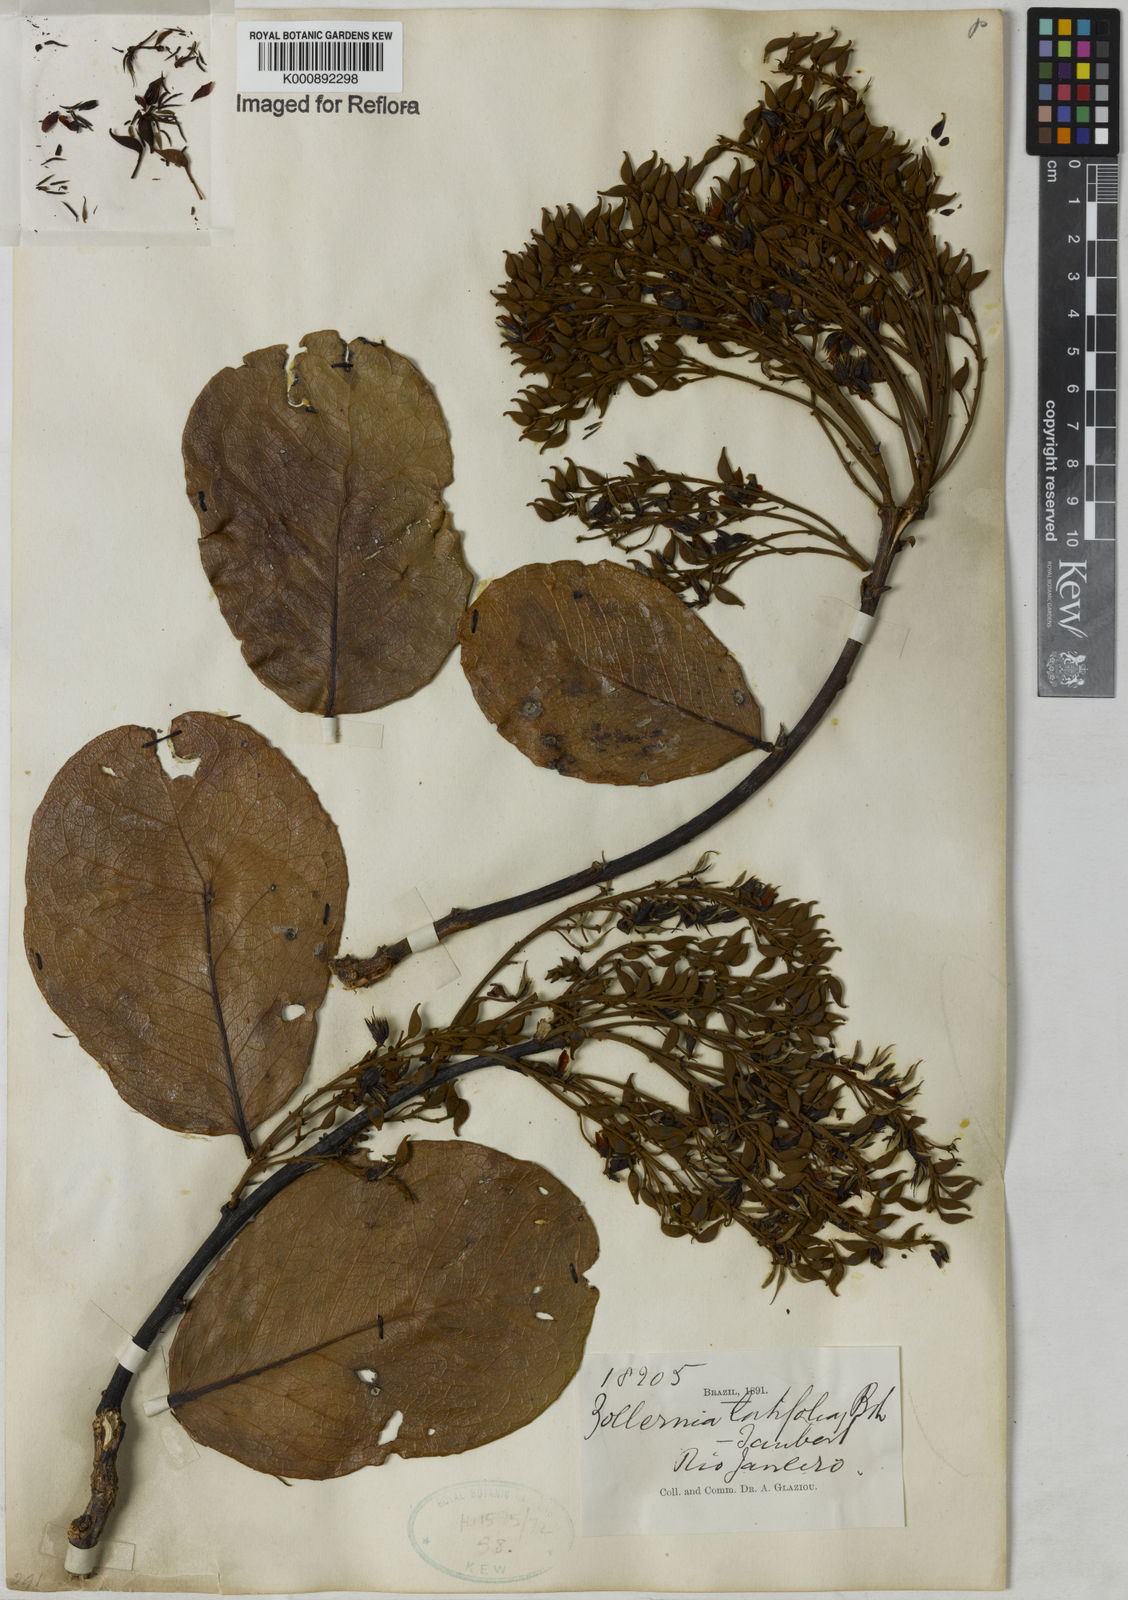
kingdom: Plantae
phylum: Tracheophyta
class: Magnoliopsida
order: Fabales
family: Fabaceae
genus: Zollernia
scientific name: Zollernia ilicifolia
